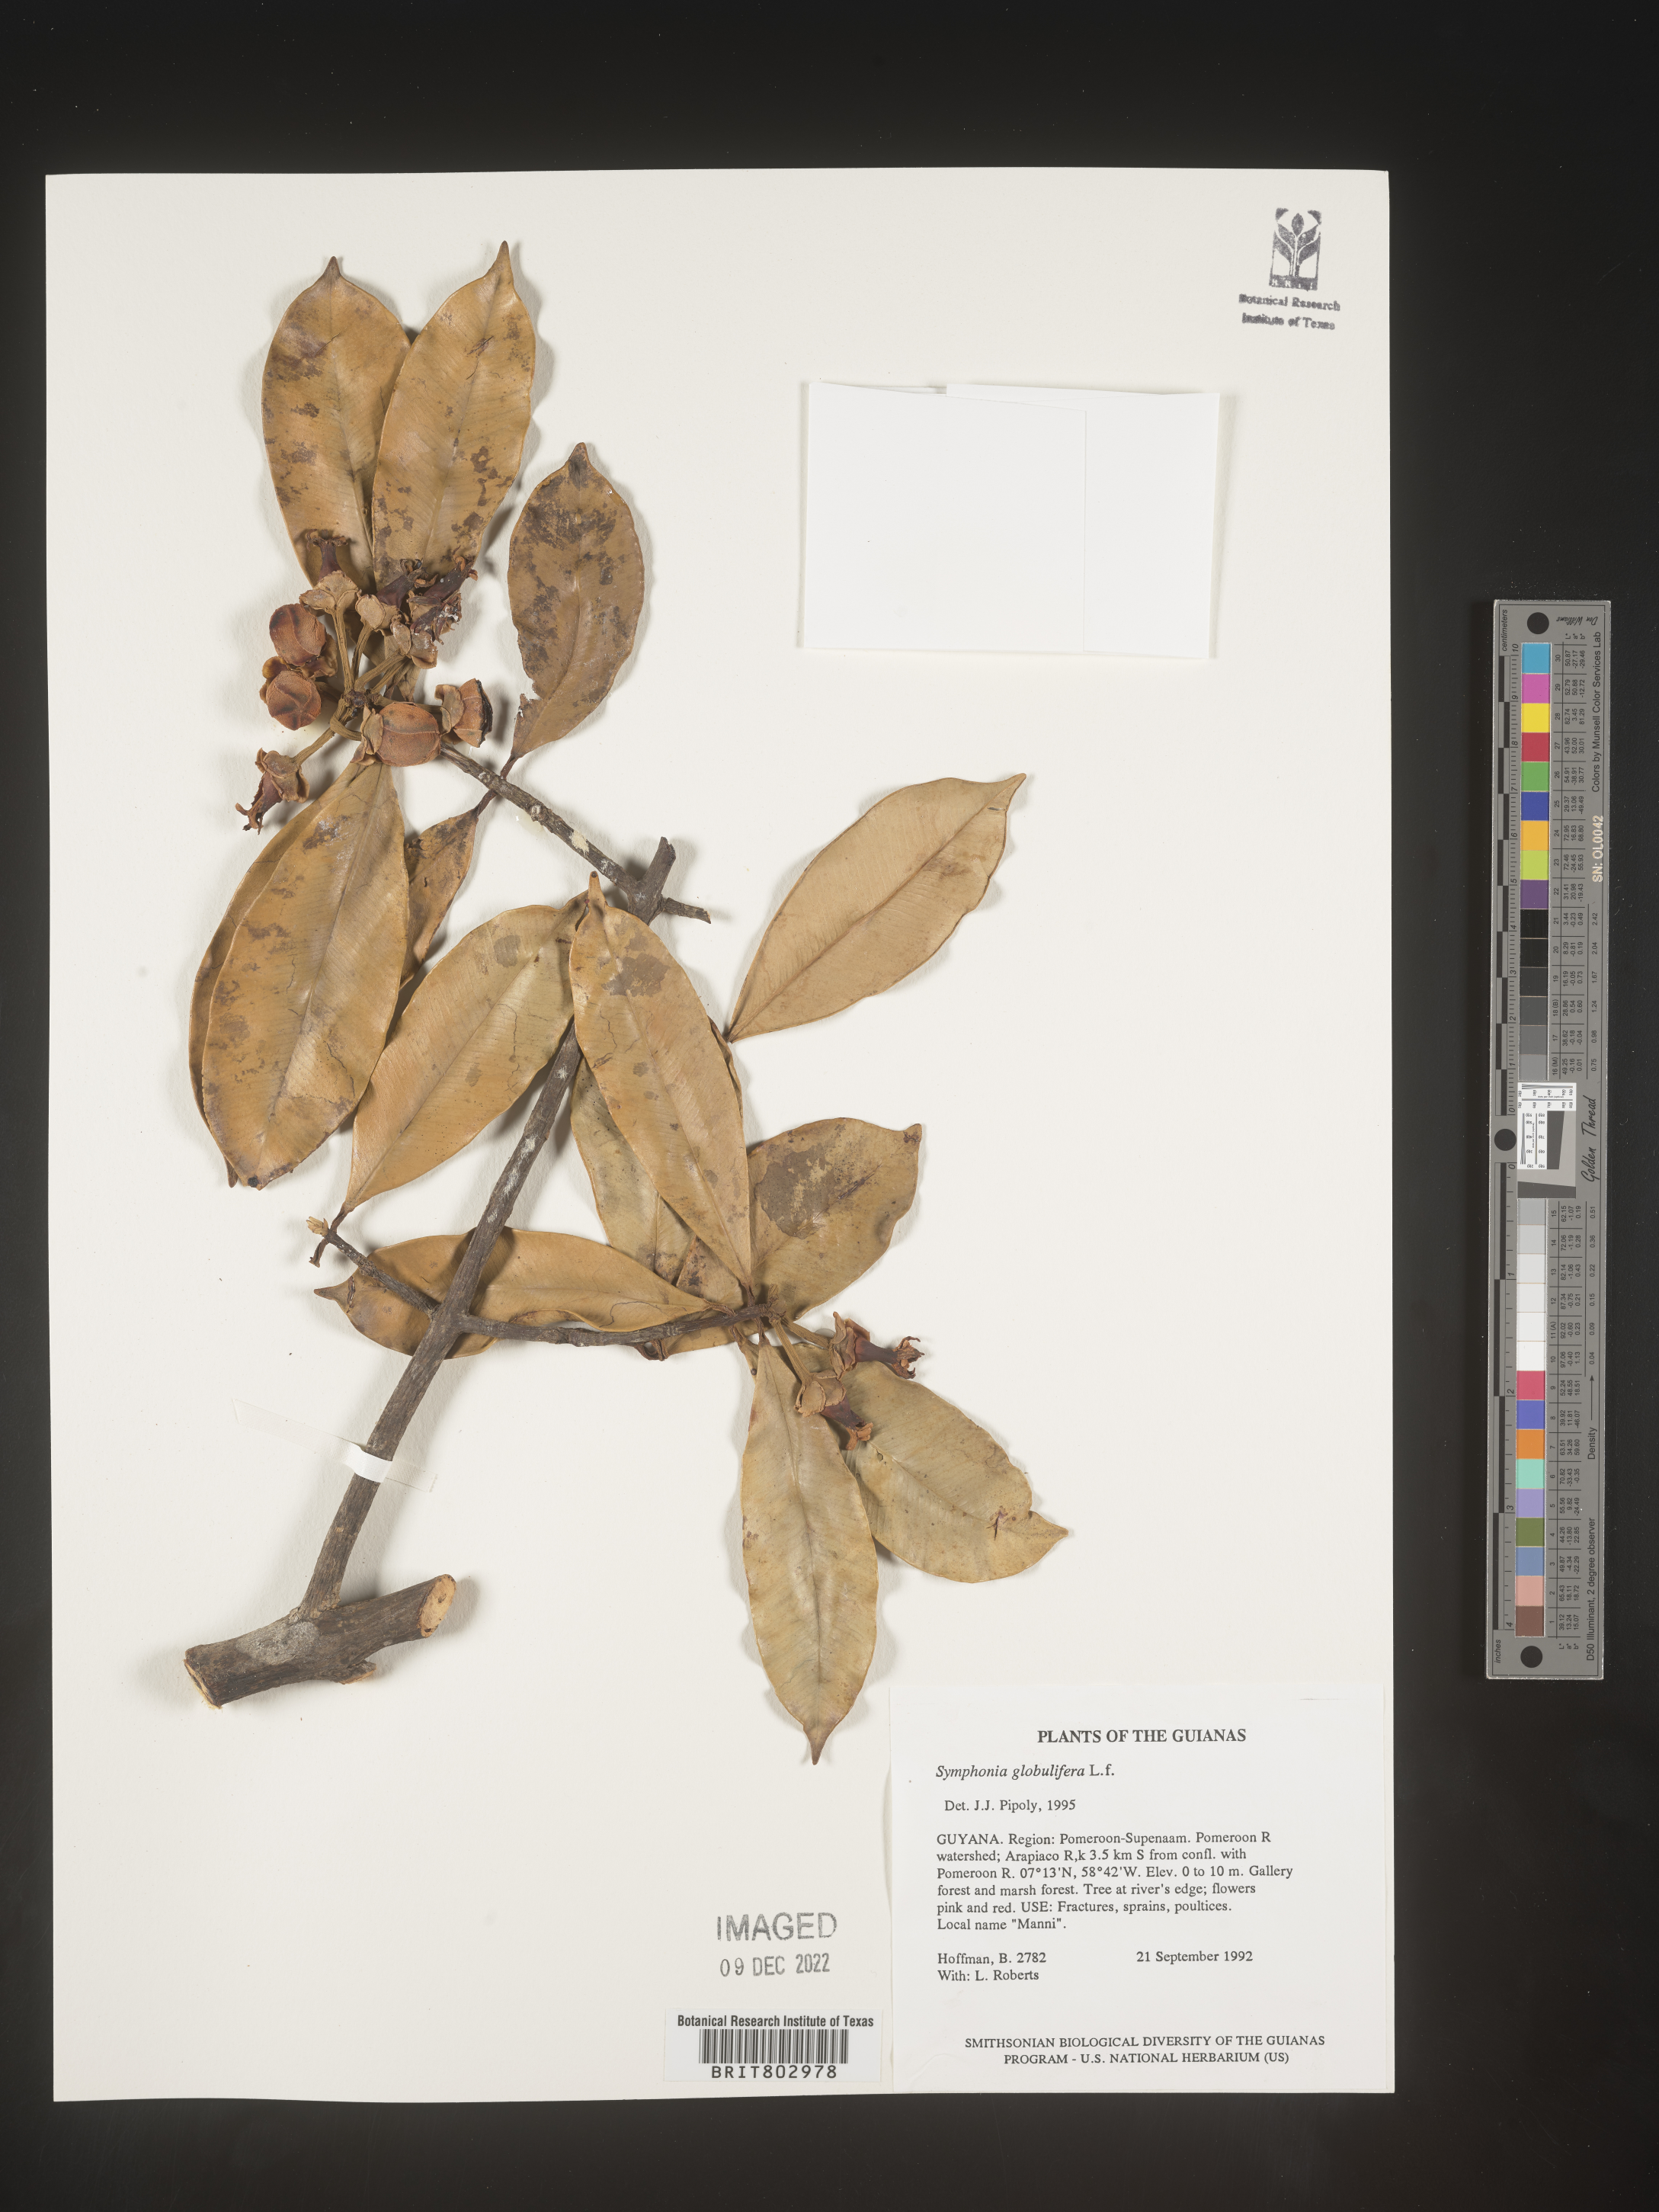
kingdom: Plantae
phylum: Tracheophyta
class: Magnoliopsida
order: Malpighiales
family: Clusiaceae
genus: Symphonia
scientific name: Symphonia globulifera
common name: Boarwood
